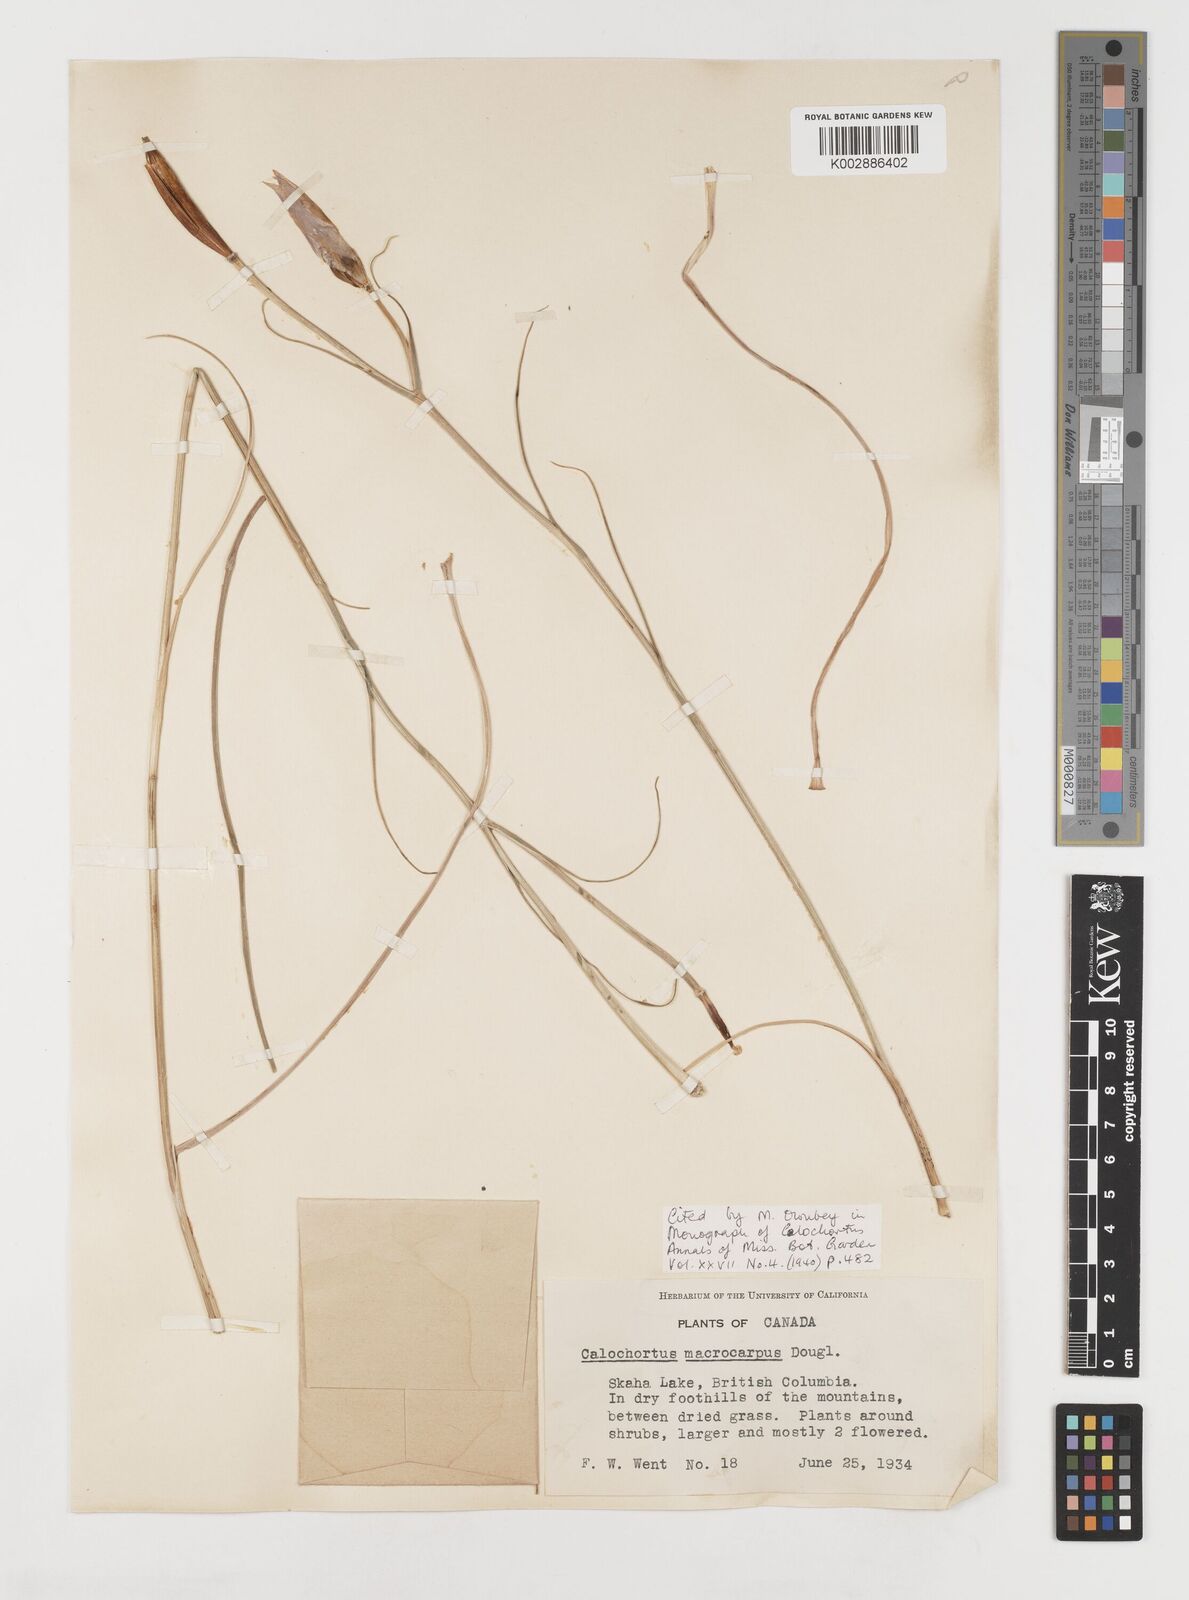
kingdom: Plantae
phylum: Tracheophyta
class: Liliopsida
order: Liliales
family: Liliaceae
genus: Calochortus
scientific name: Calochortus macrocarpus
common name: Green-band mariposa lily
